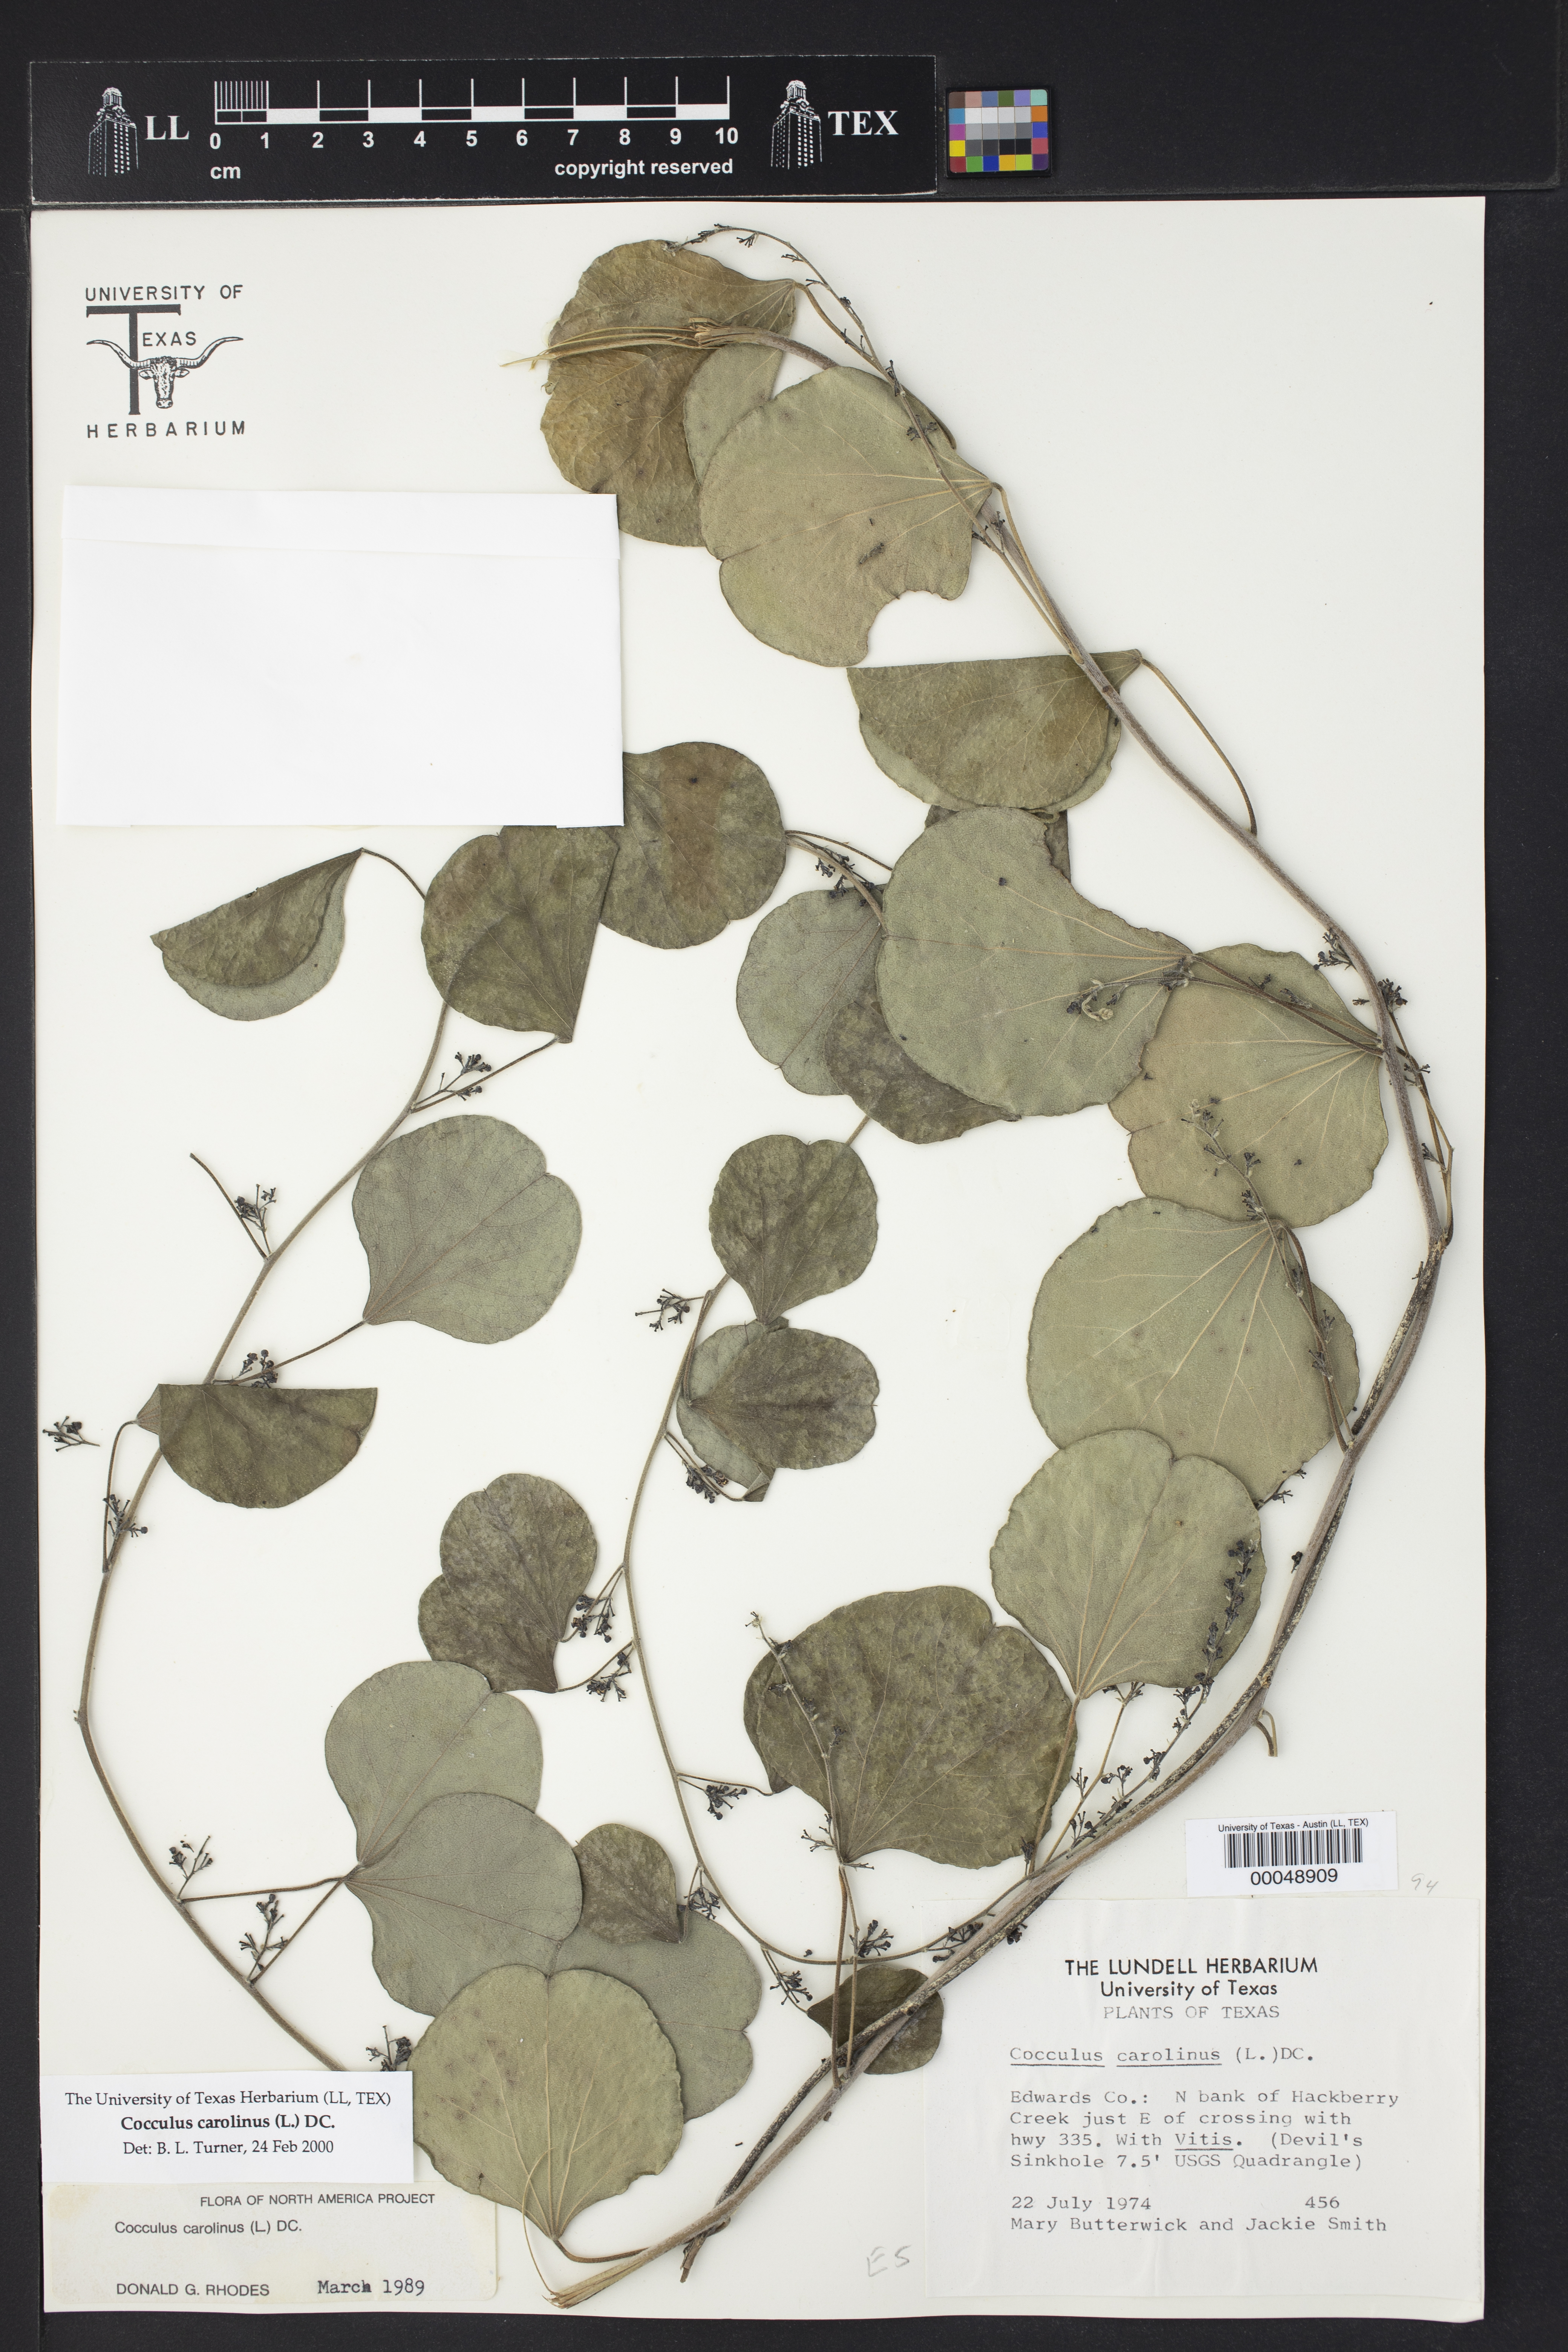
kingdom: Plantae
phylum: Tracheophyta
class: Magnoliopsida
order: Ranunculales
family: Menispermaceae
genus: Cocculus
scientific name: Cocculus carolinus
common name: Carolina moonseed
